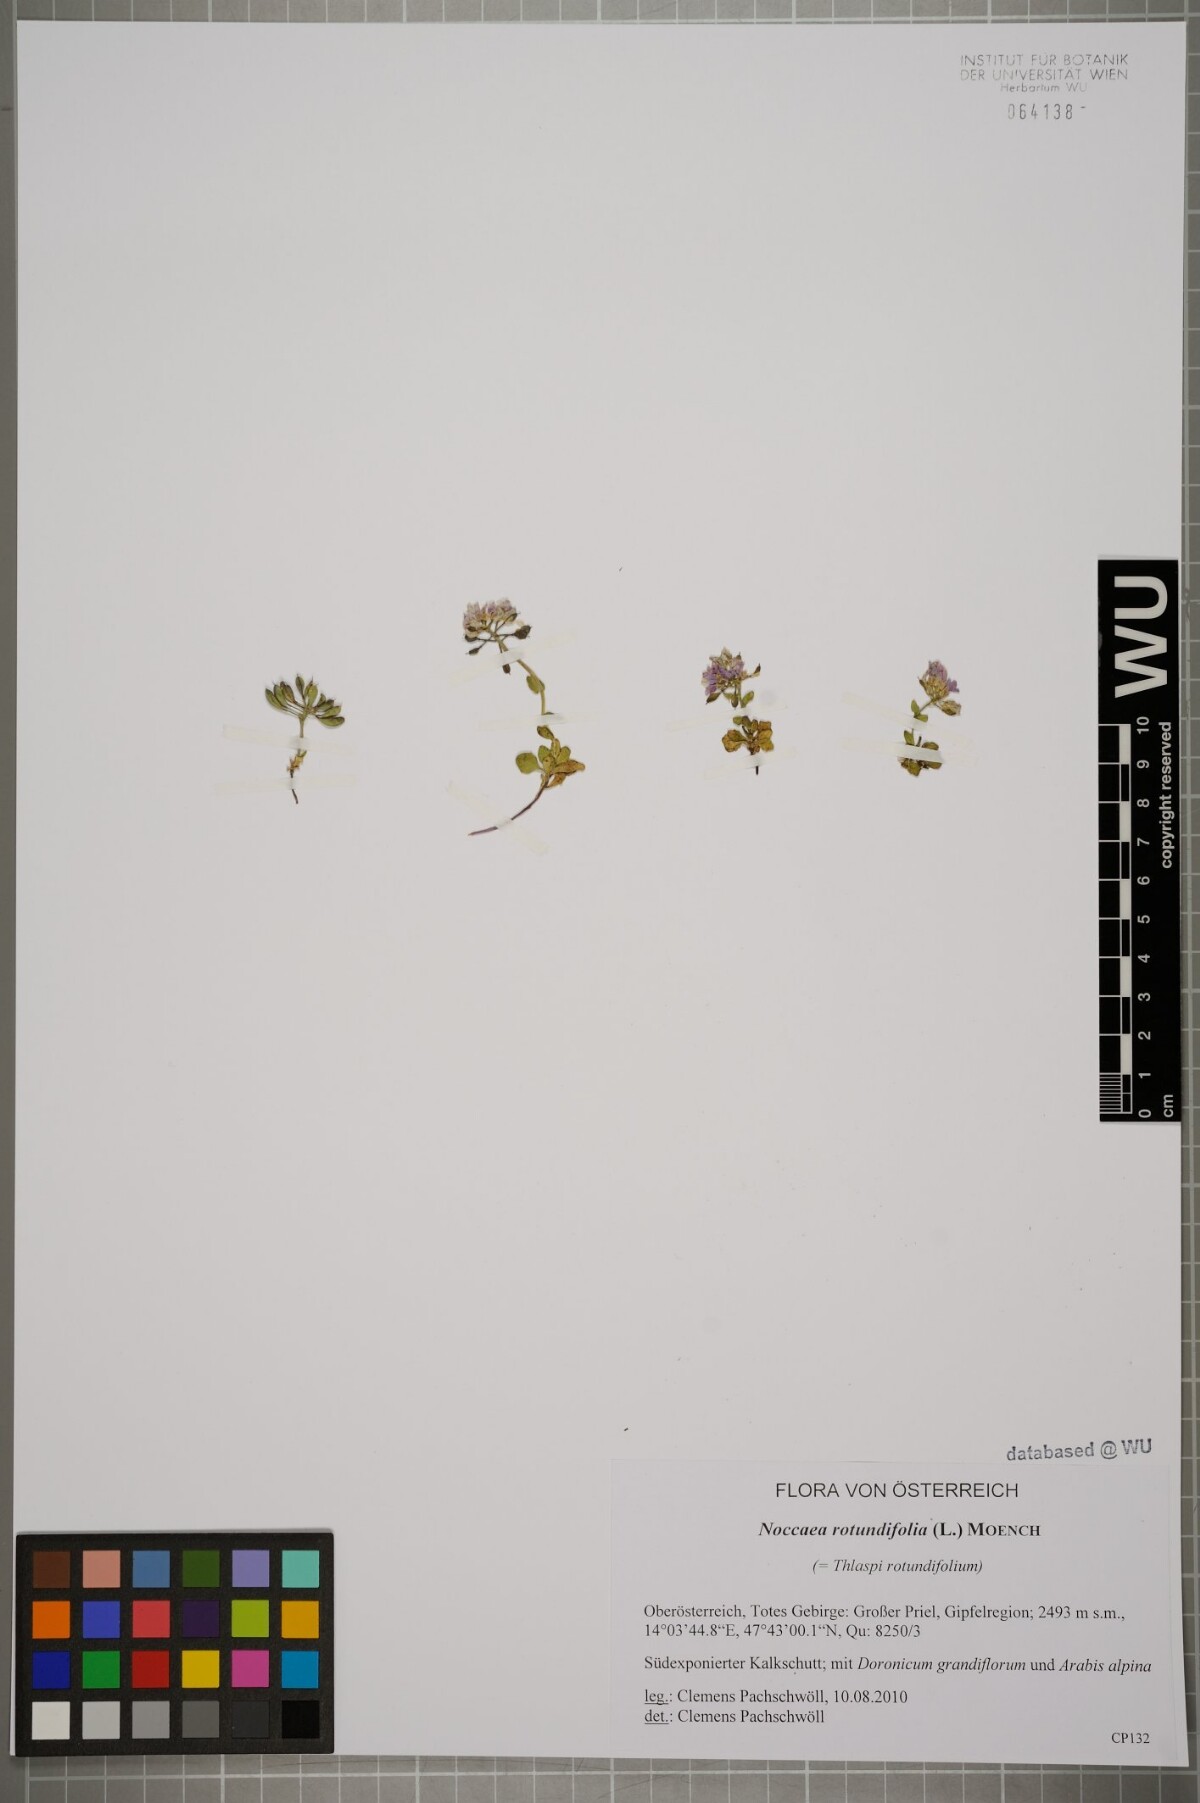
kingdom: Plantae
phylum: Tracheophyta
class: Magnoliopsida
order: Brassicales
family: Brassicaceae
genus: Noccaea
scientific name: Noccaea rotundifolia
